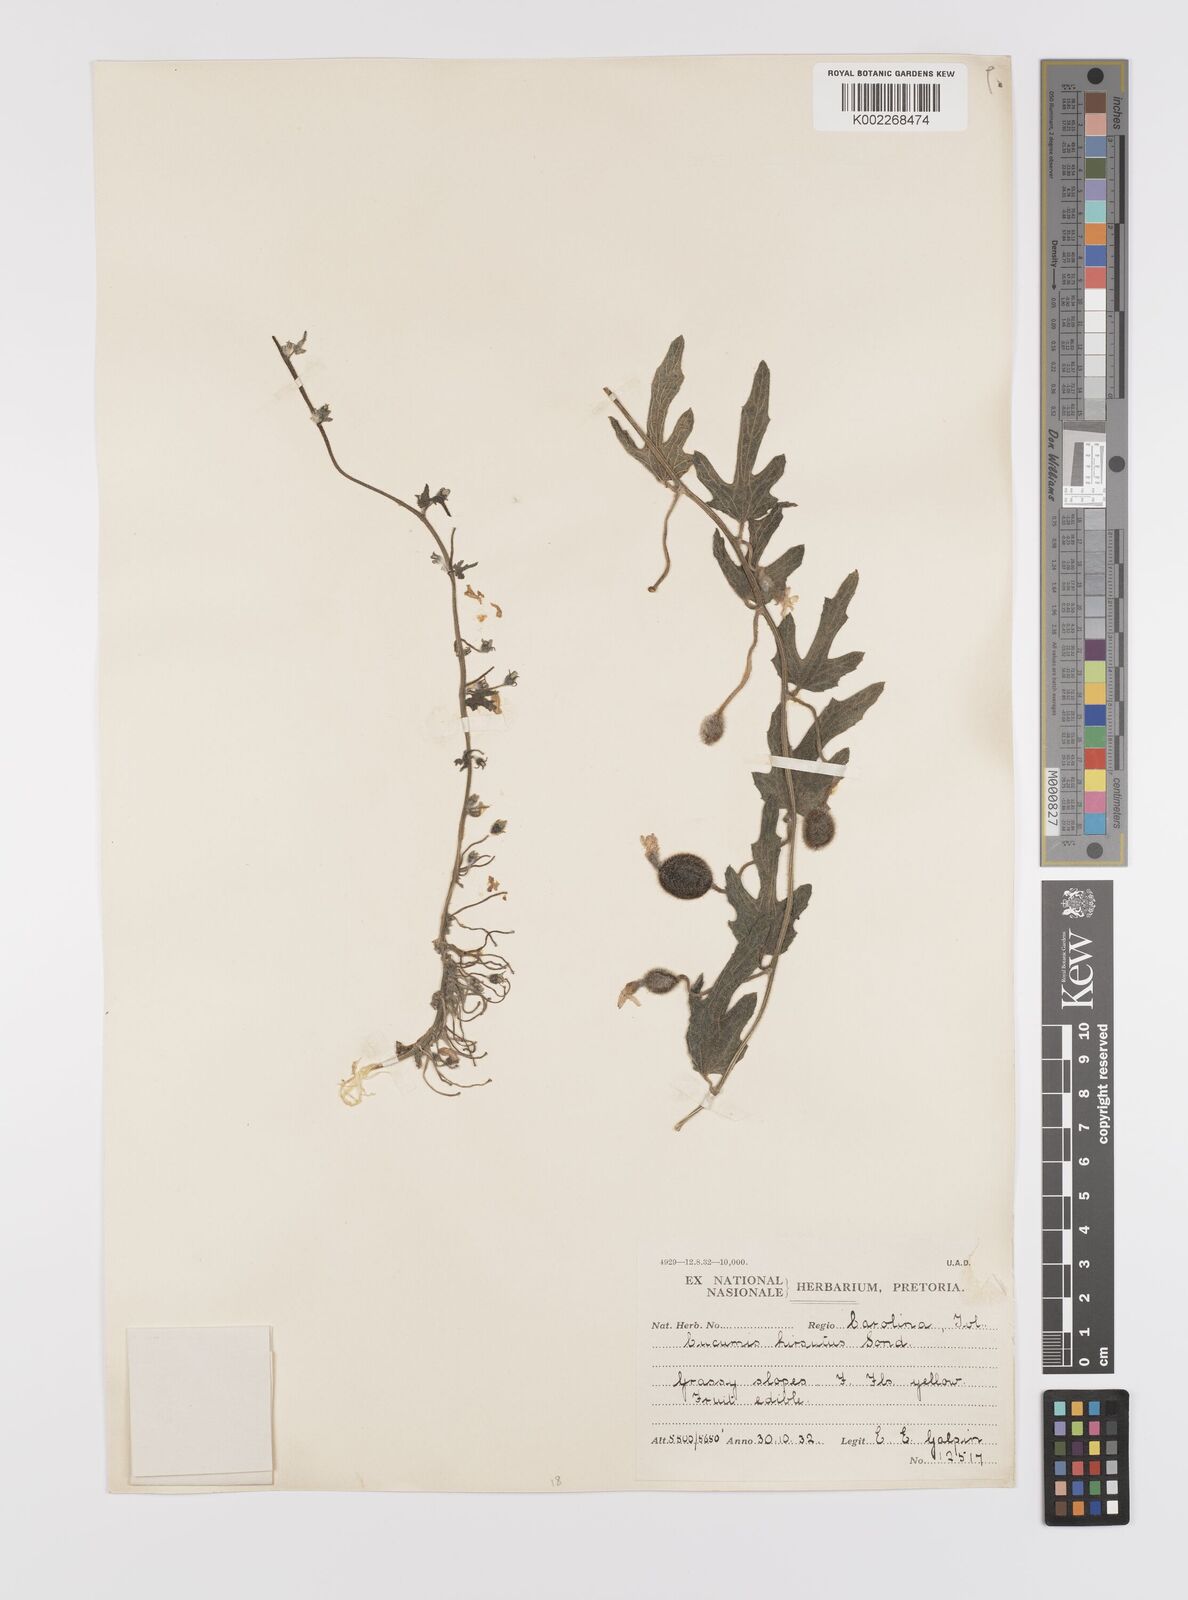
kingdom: Plantae
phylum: Tracheophyta
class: Magnoliopsida
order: Cucurbitales
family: Cucurbitaceae
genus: Cucumis
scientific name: Cucumis hirsutus
